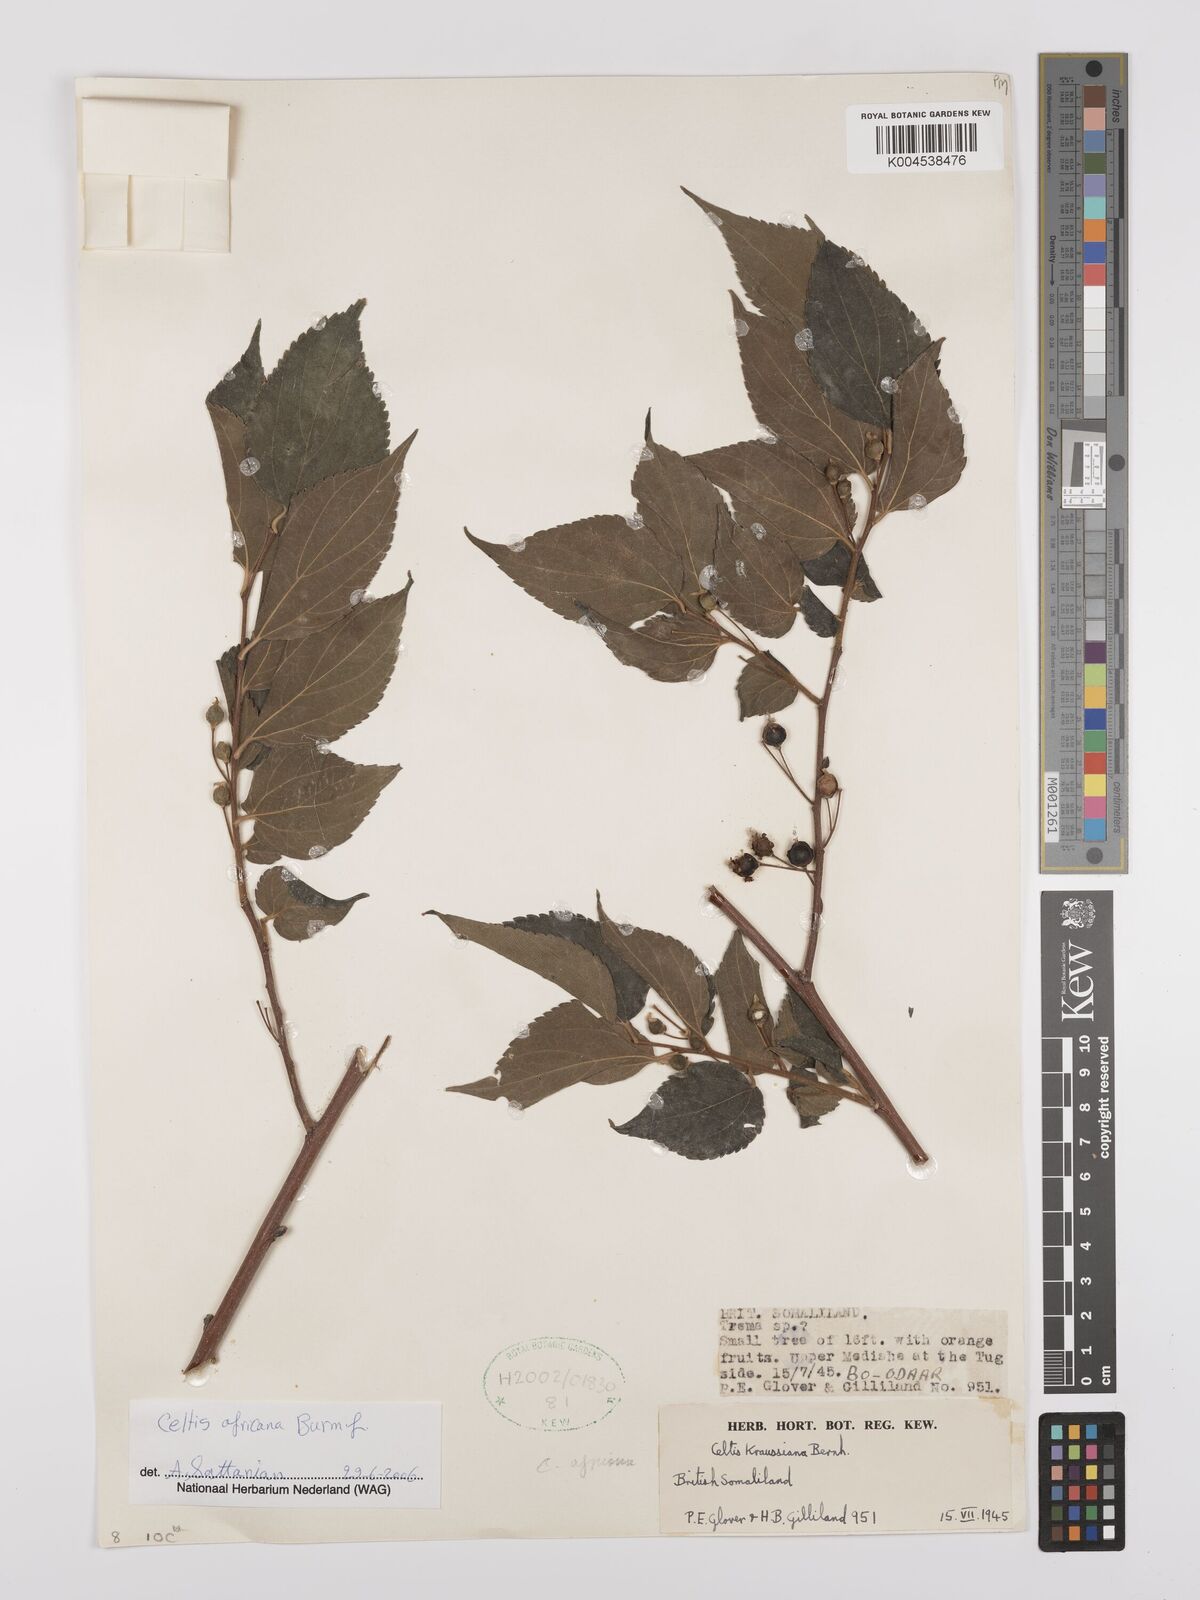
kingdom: Plantae
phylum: Tracheophyta
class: Magnoliopsida
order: Rosales
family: Cannabaceae
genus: Celtis
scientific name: Celtis africana
